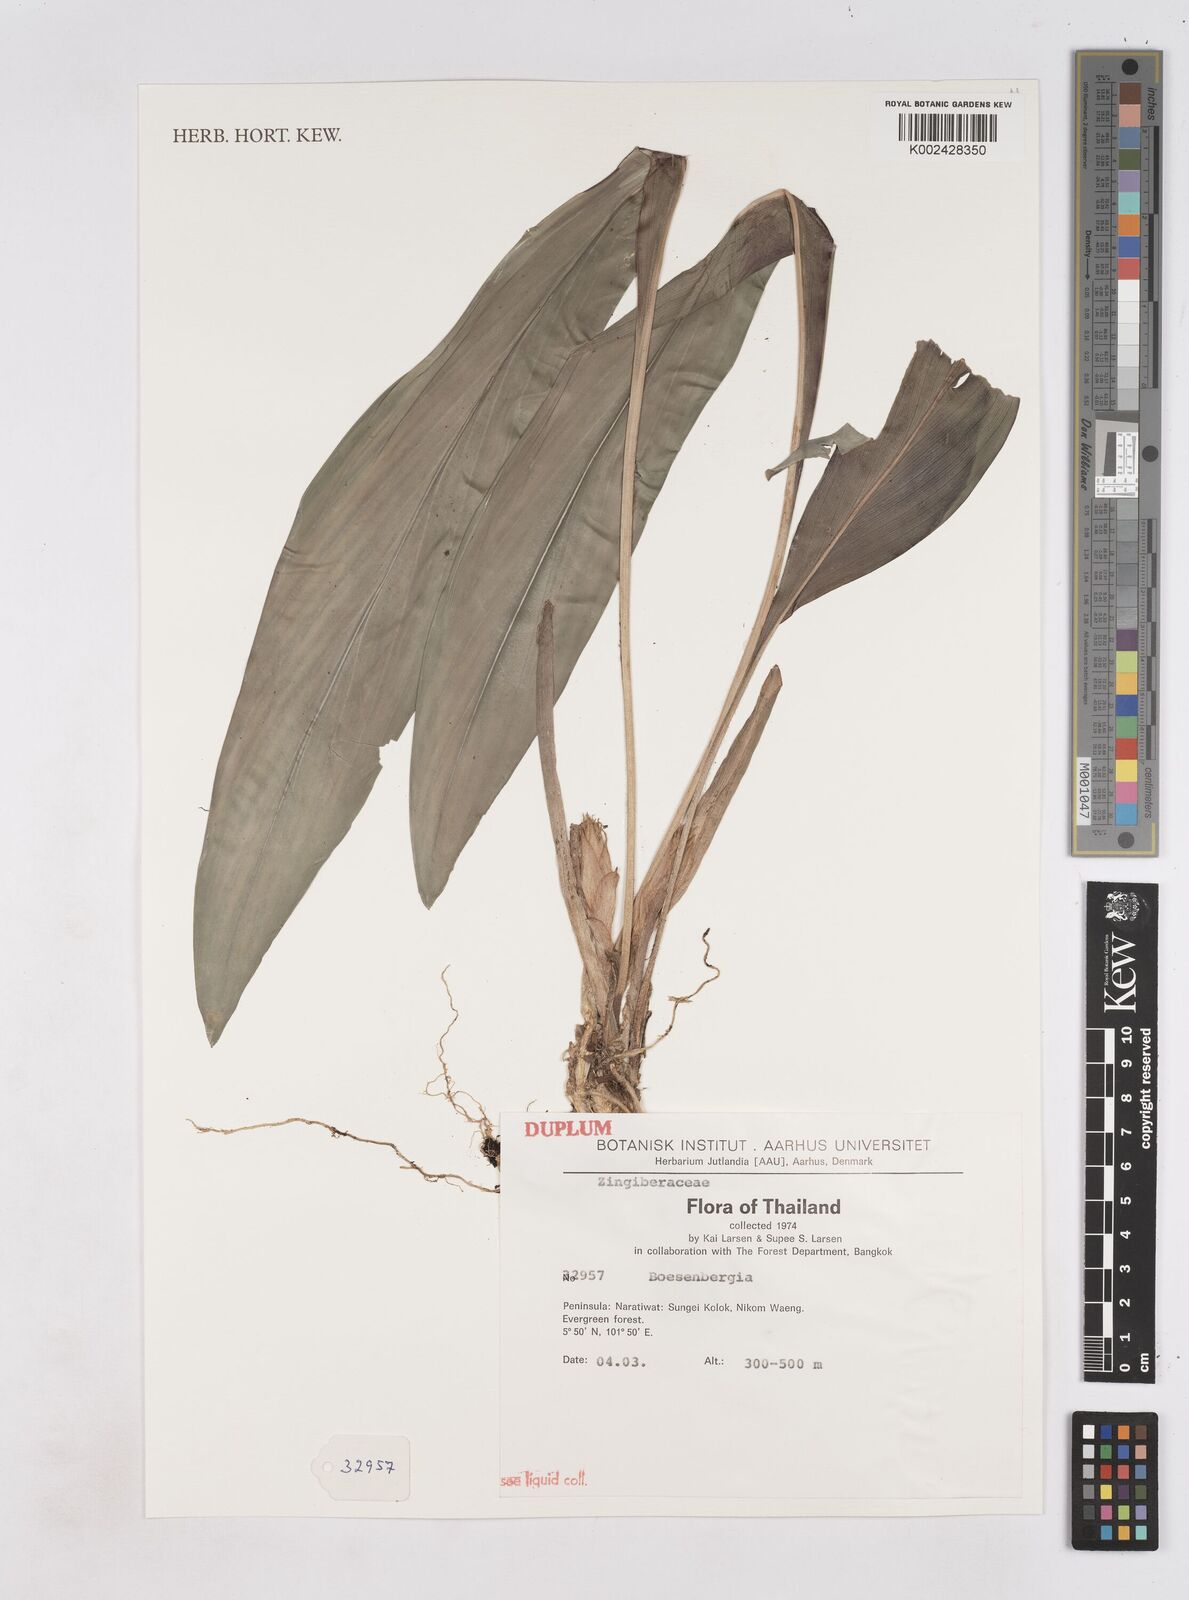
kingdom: Plantae
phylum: Tracheophyta
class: Liliopsida
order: Zingiberales
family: Zingiberaceae
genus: Boesenbergia
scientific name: Boesenbergia
